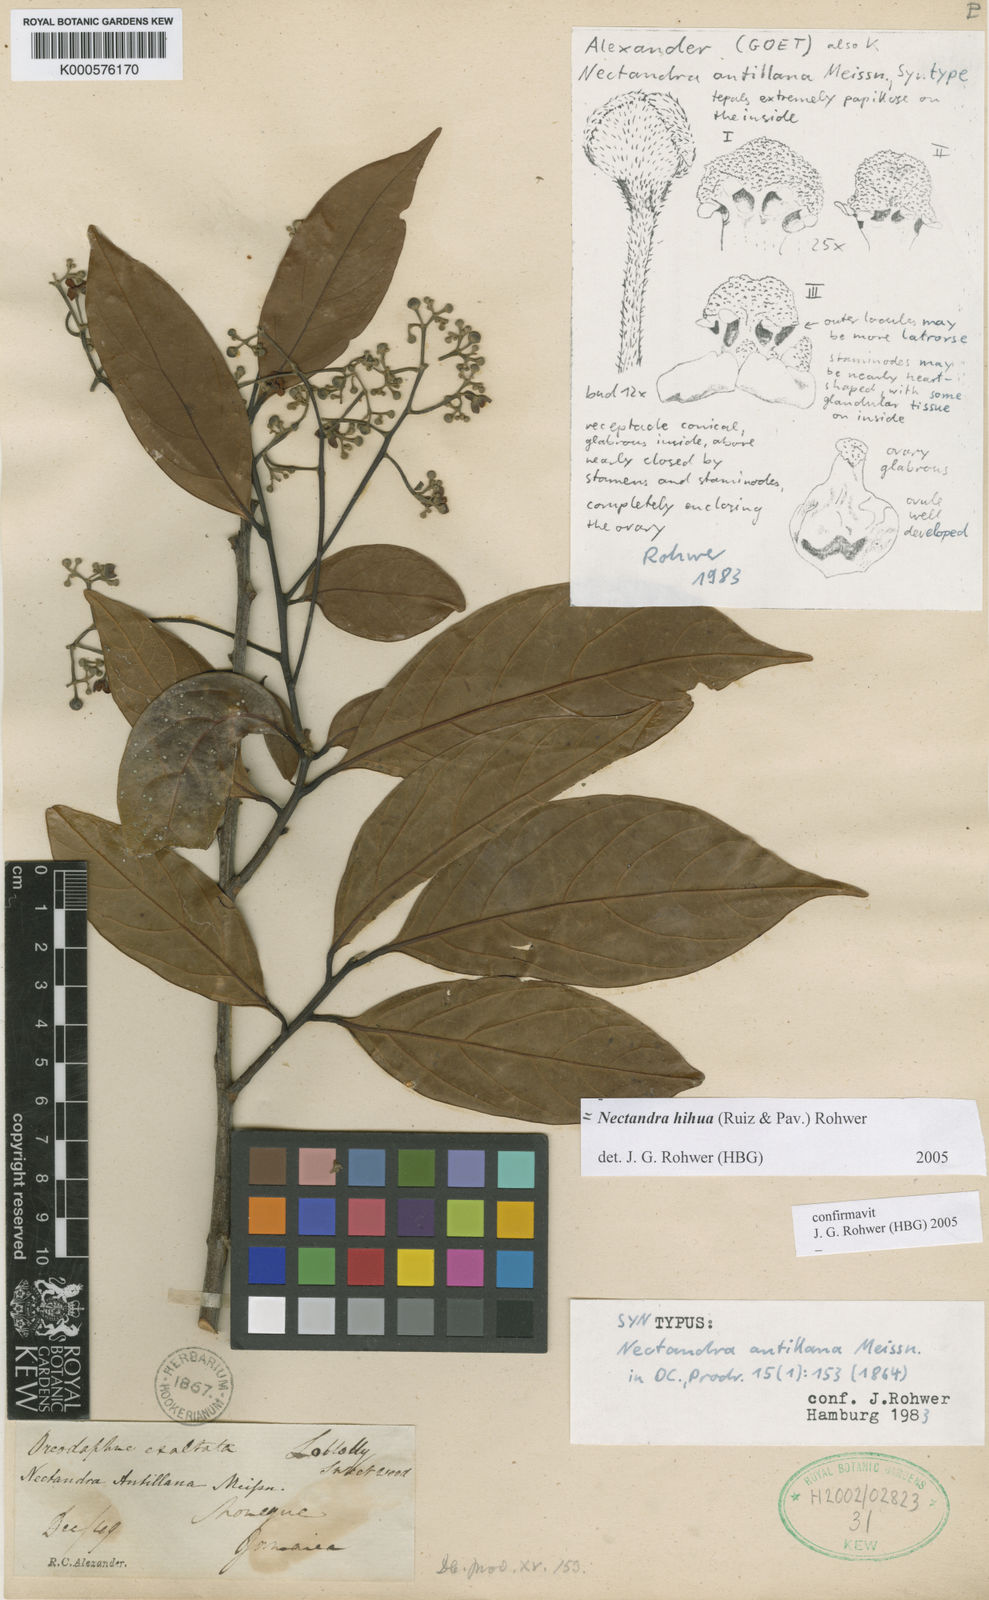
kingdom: Plantae
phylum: Tracheophyta
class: Magnoliopsida
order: Laurales
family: Lauraceae
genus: Nectandra
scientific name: Nectandra hihua
